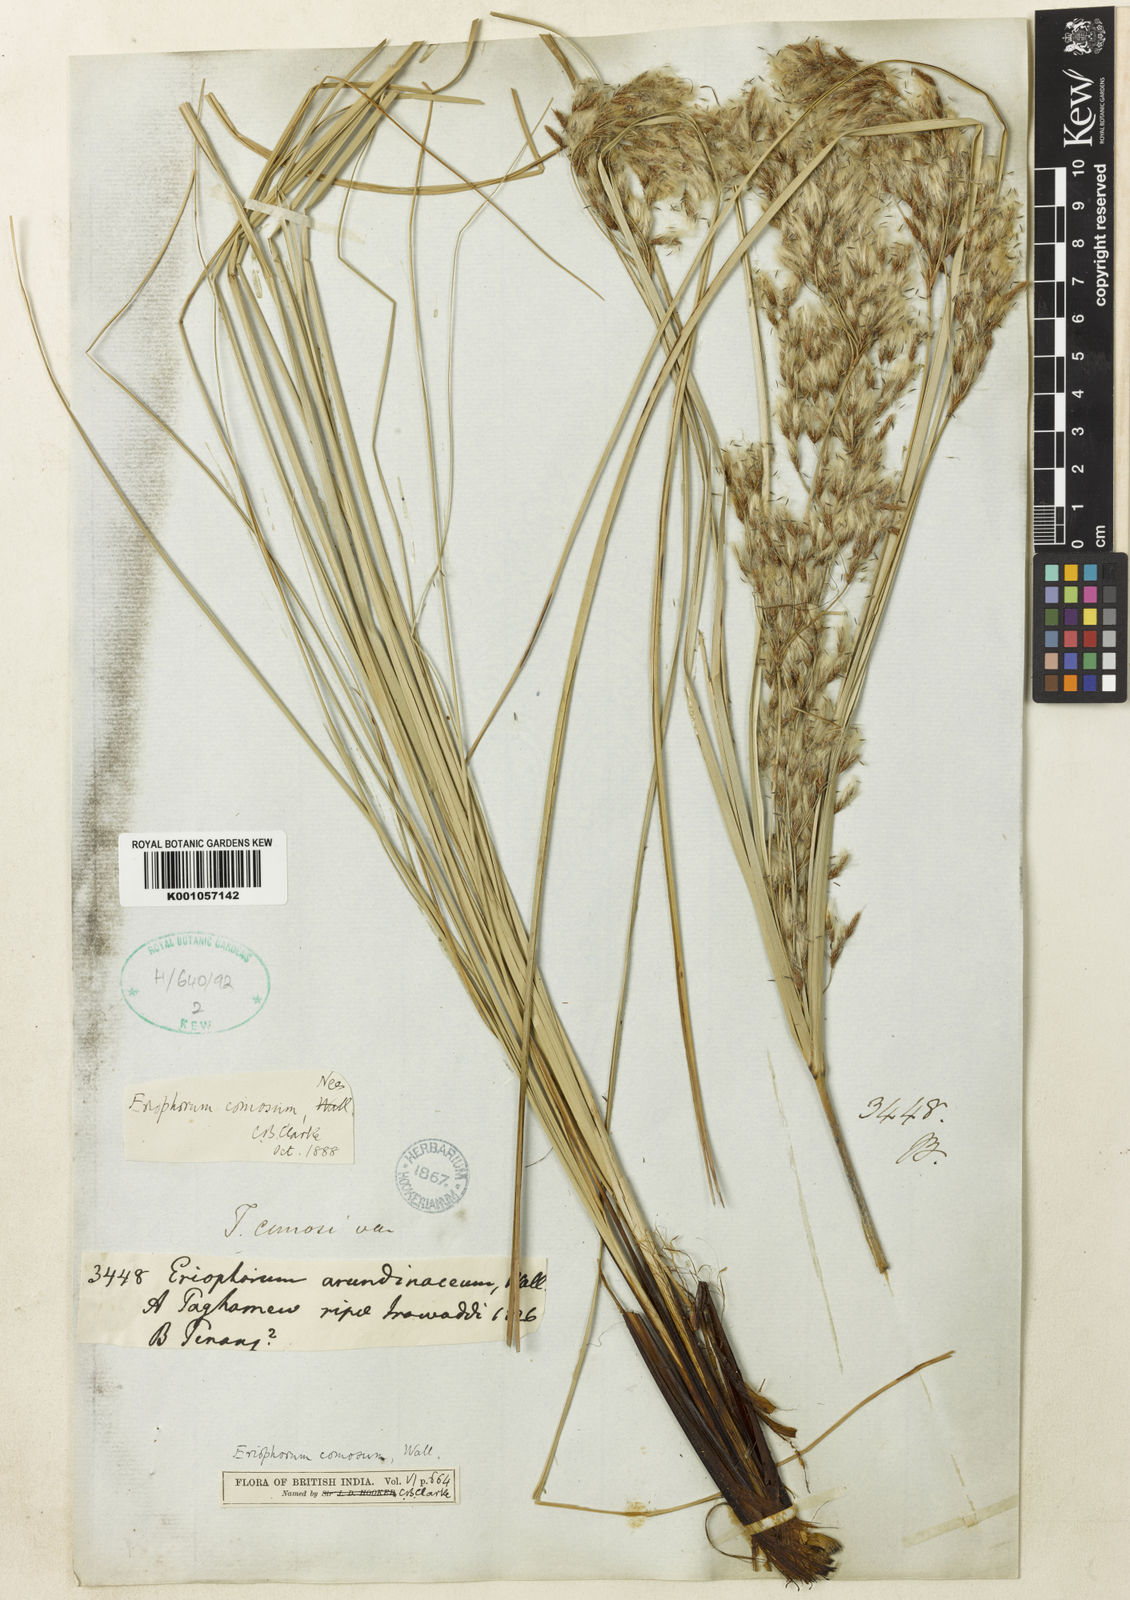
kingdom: Plantae
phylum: Tracheophyta
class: Liliopsida
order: Poales
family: Cyperaceae
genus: Erioscirpus
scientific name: Erioscirpus comosus
